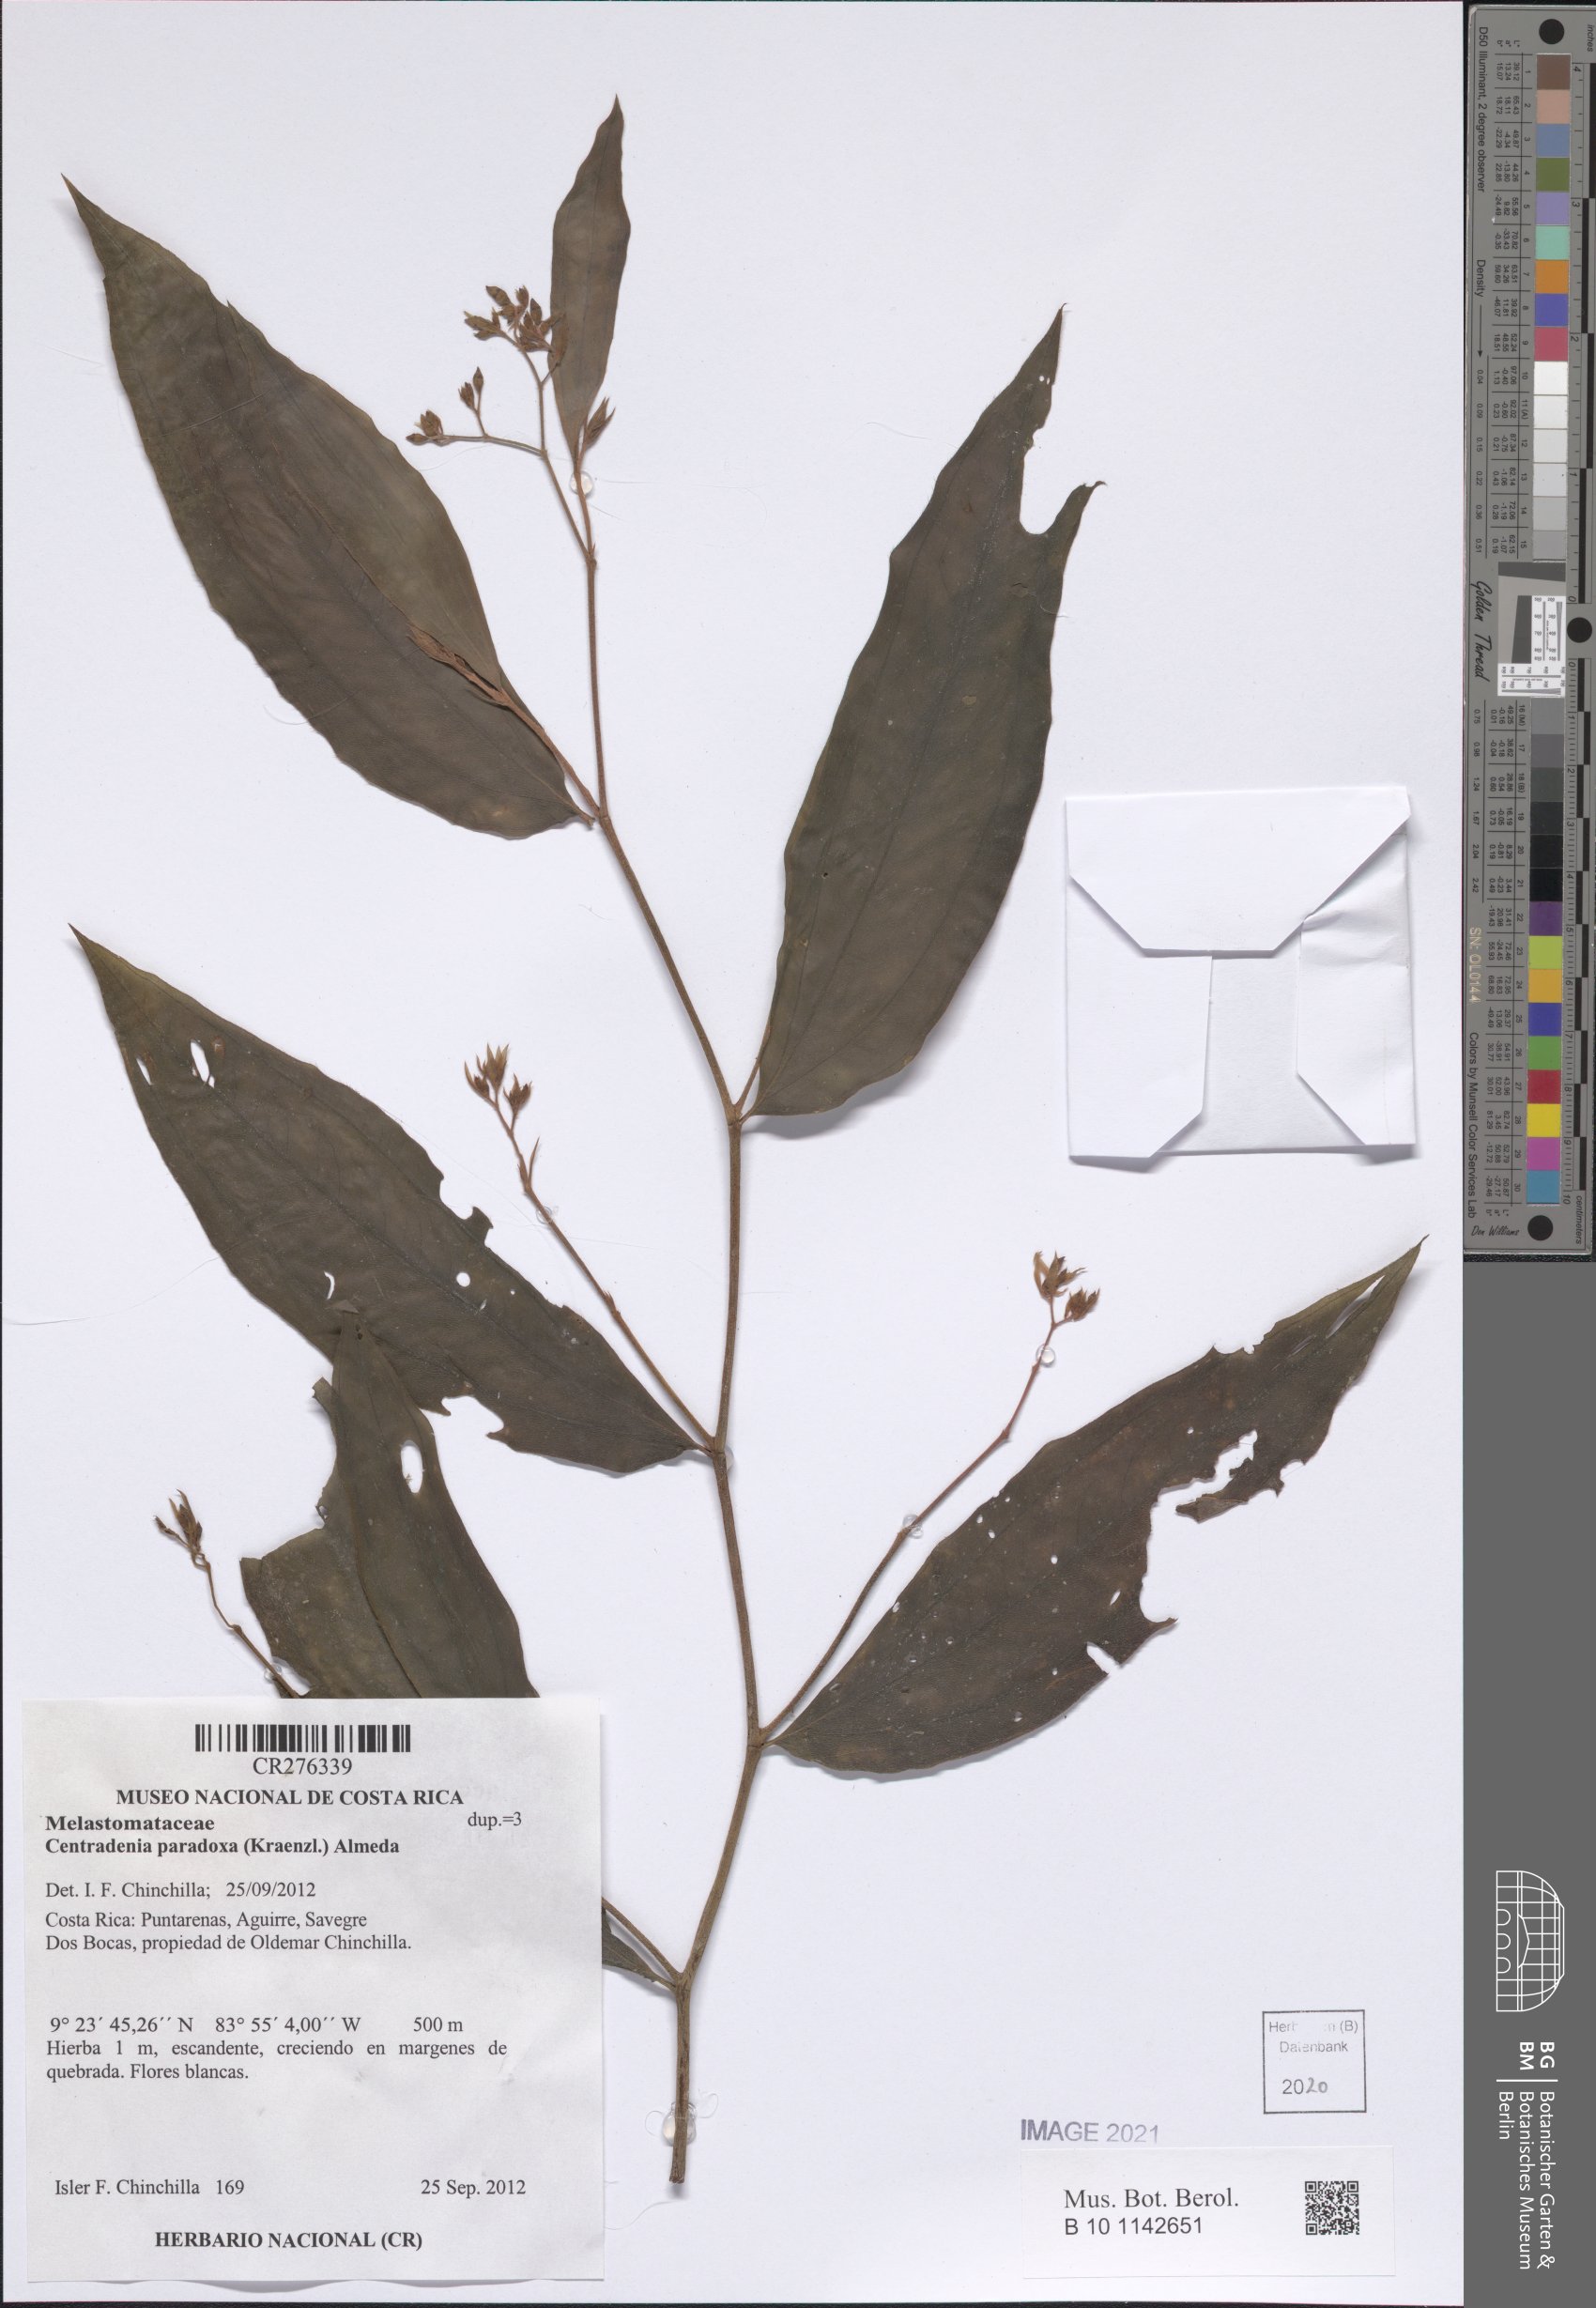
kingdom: Plantae
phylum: Tracheophyta
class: Magnoliopsida
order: Myrtales
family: Melastomataceae
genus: Centradenia
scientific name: Centradenia paradoxa
